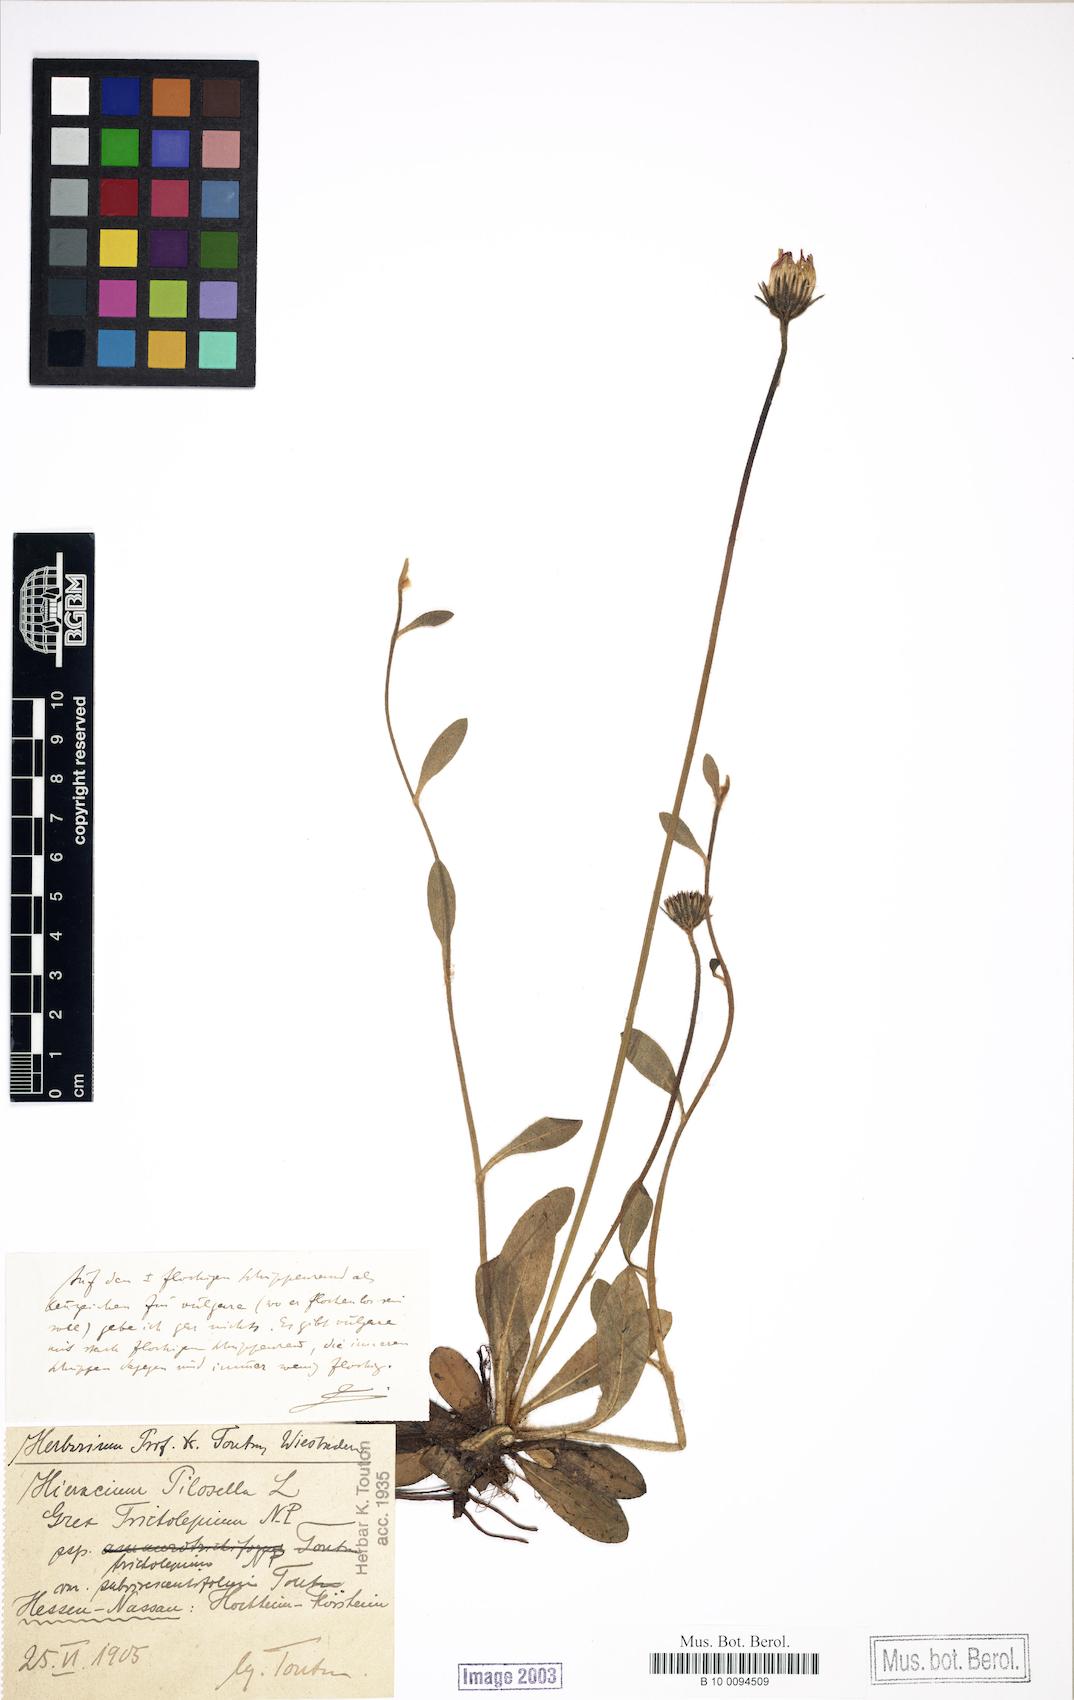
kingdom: Plantae
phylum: Tracheophyta
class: Magnoliopsida
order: Asterales
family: Asteraceae
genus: Pilosella
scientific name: Pilosella officinarum
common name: Mouse-ear hawkweed
